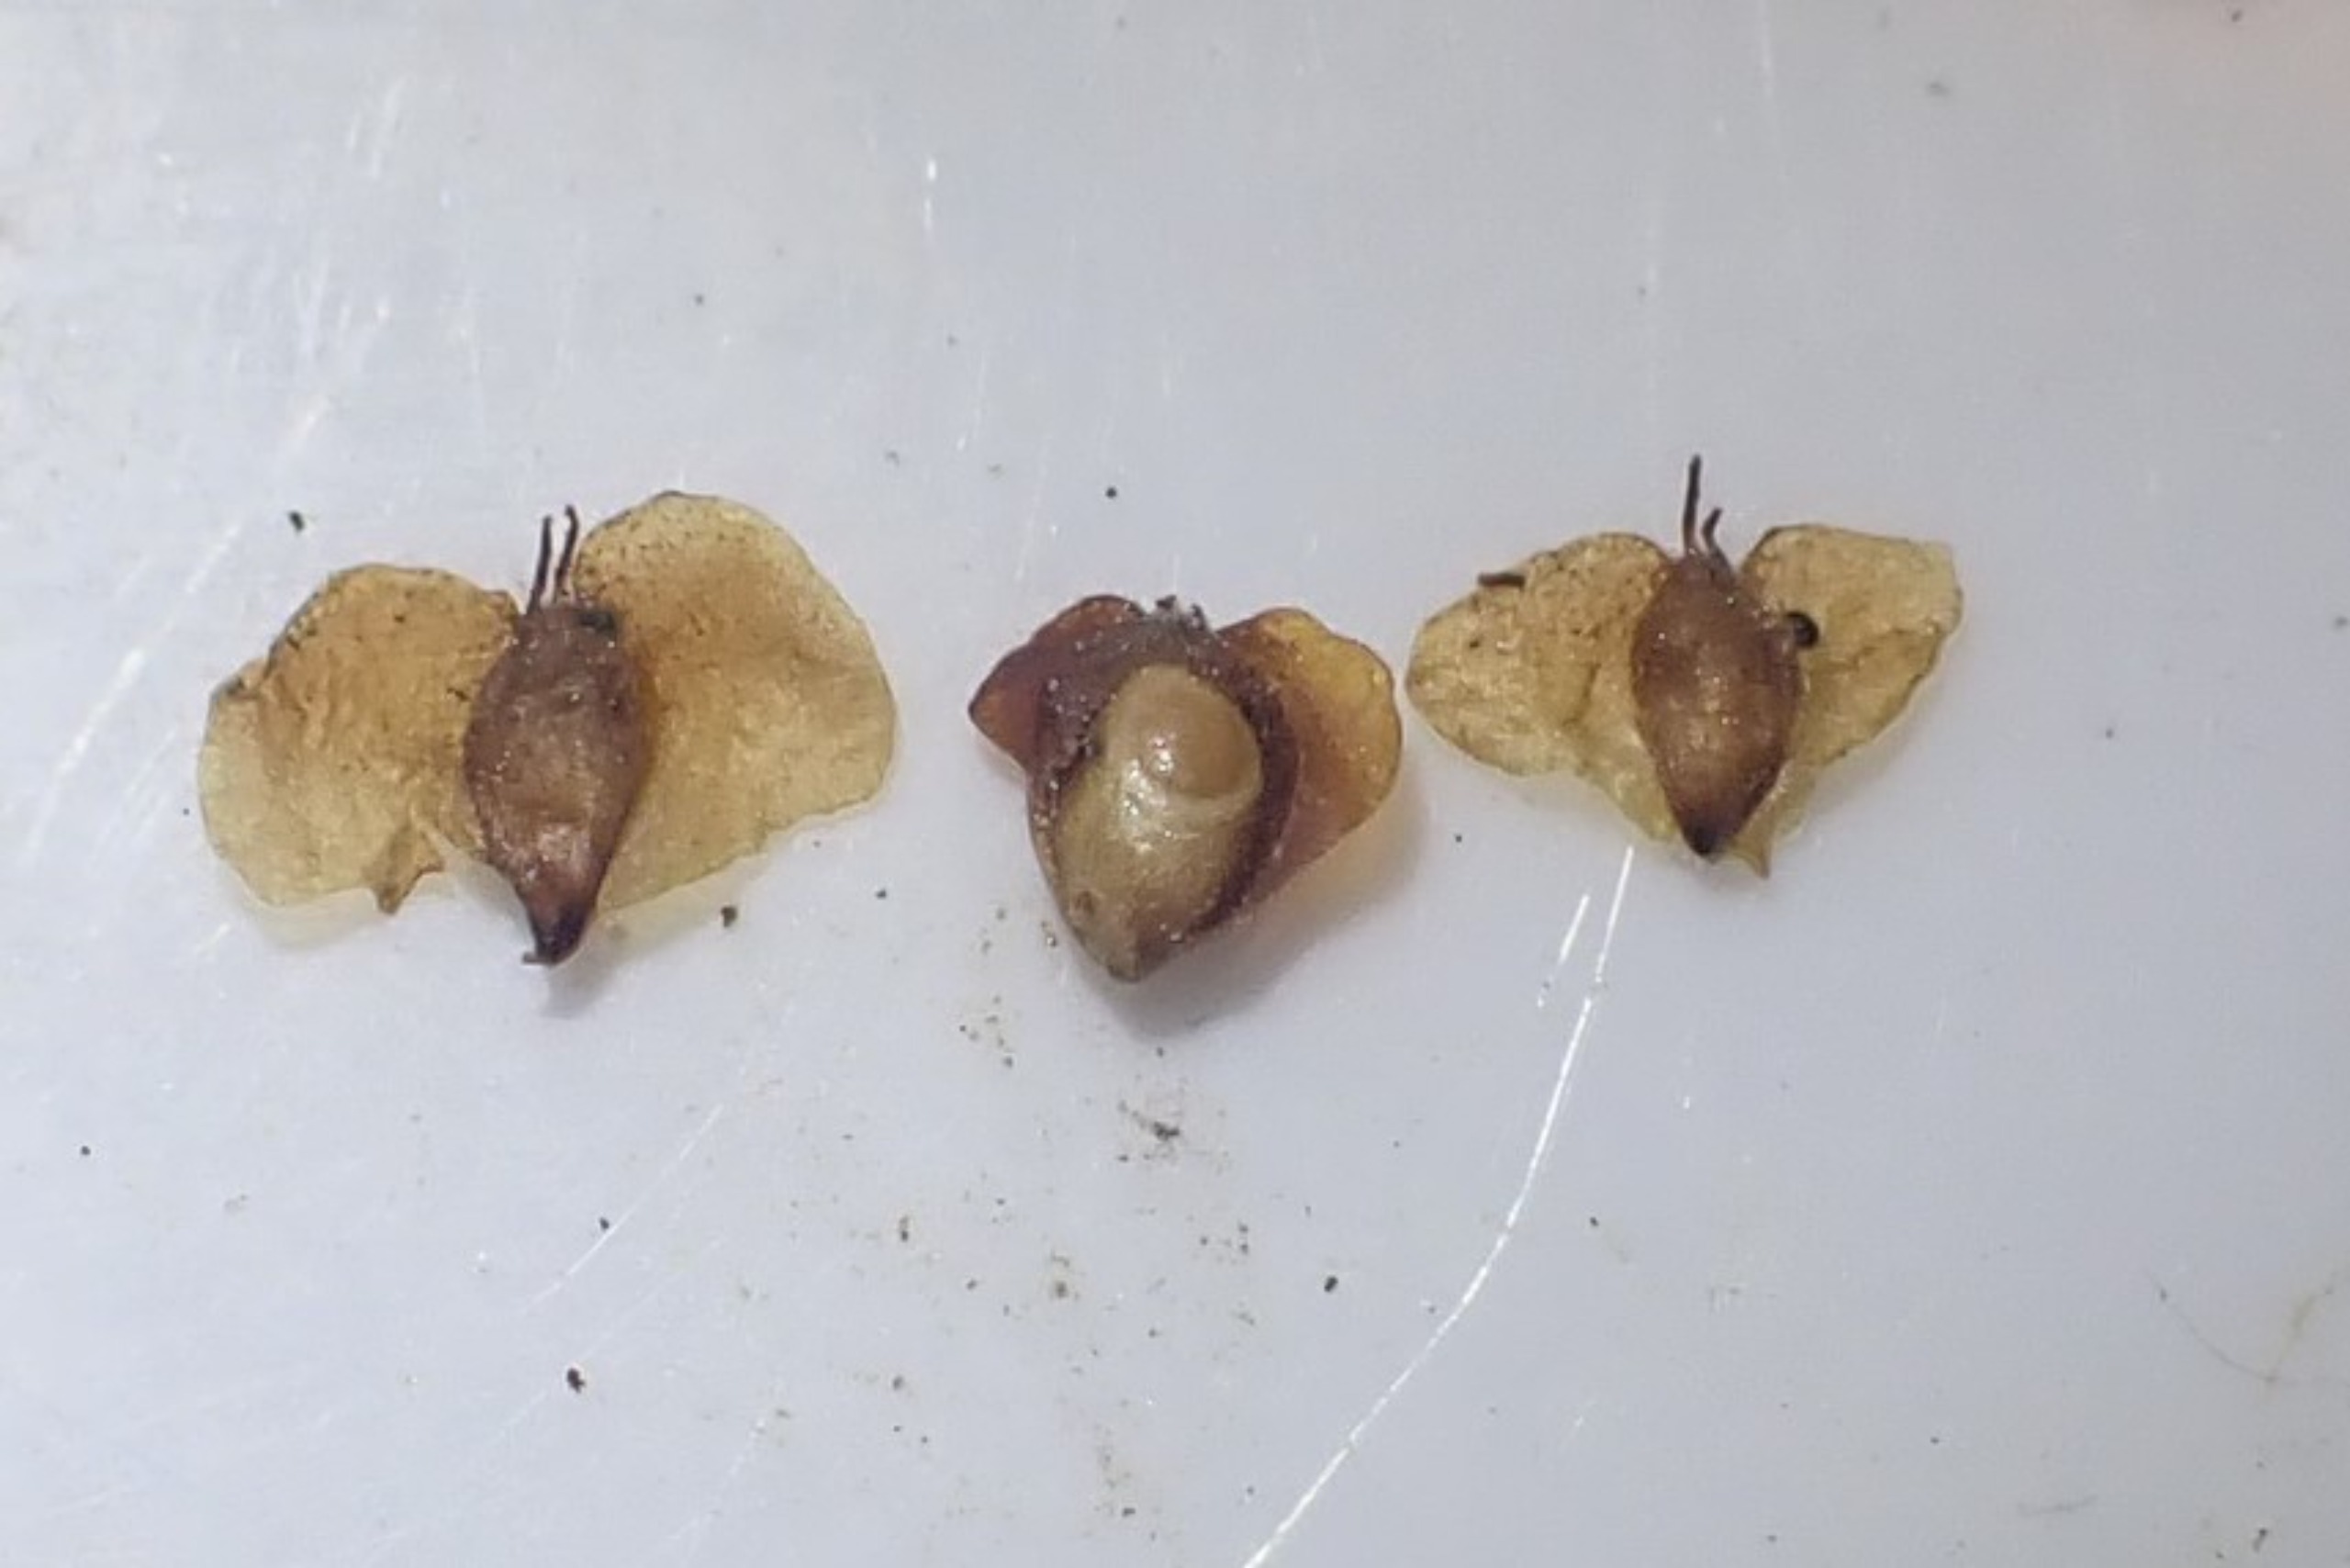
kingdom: Animalia
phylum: Arthropoda
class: Insecta
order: Diptera
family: Cecidomyiidae
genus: Semudobia
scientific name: Semudobia betulae
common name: Lille birkefrøgalmyg
